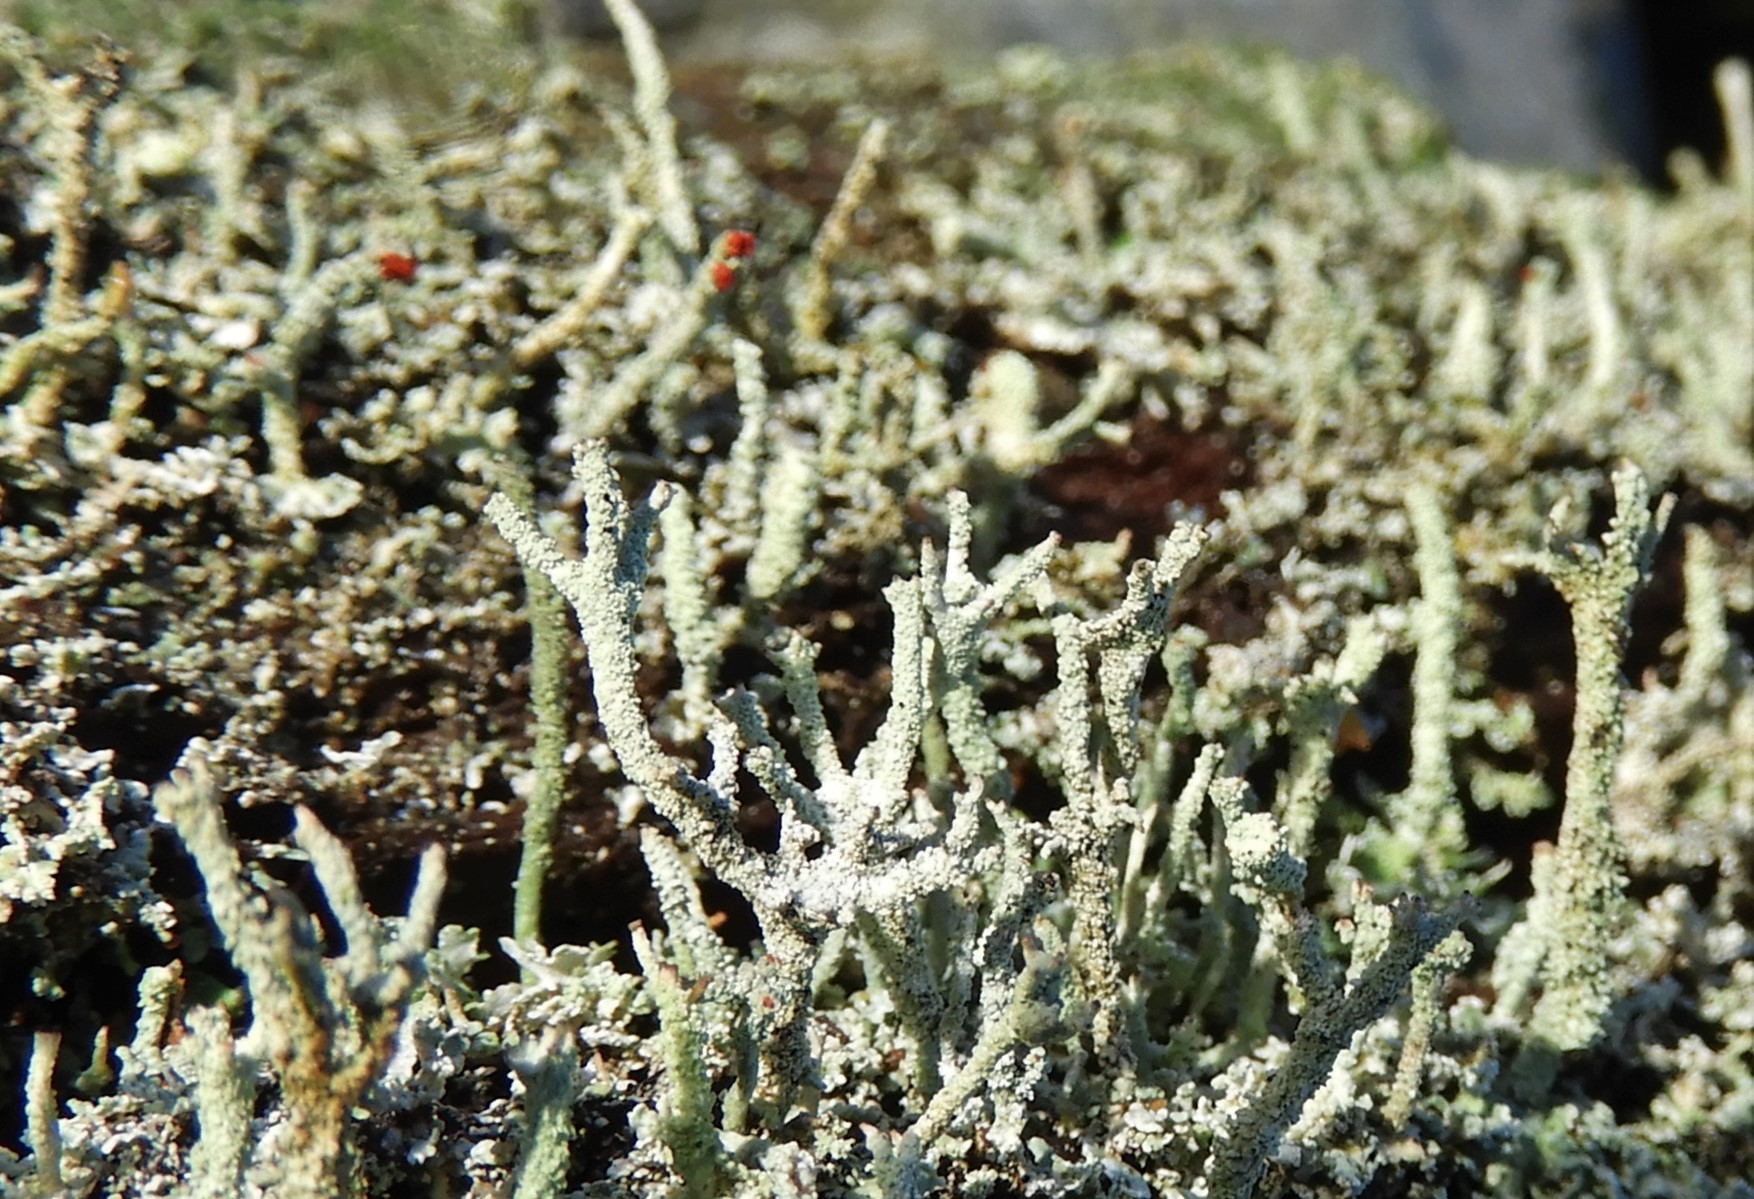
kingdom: Fungi
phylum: Ascomycota
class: Lecanoromycetes
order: Lecanorales
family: Cladoniaceae
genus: Cladonia
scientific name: Cladonia
